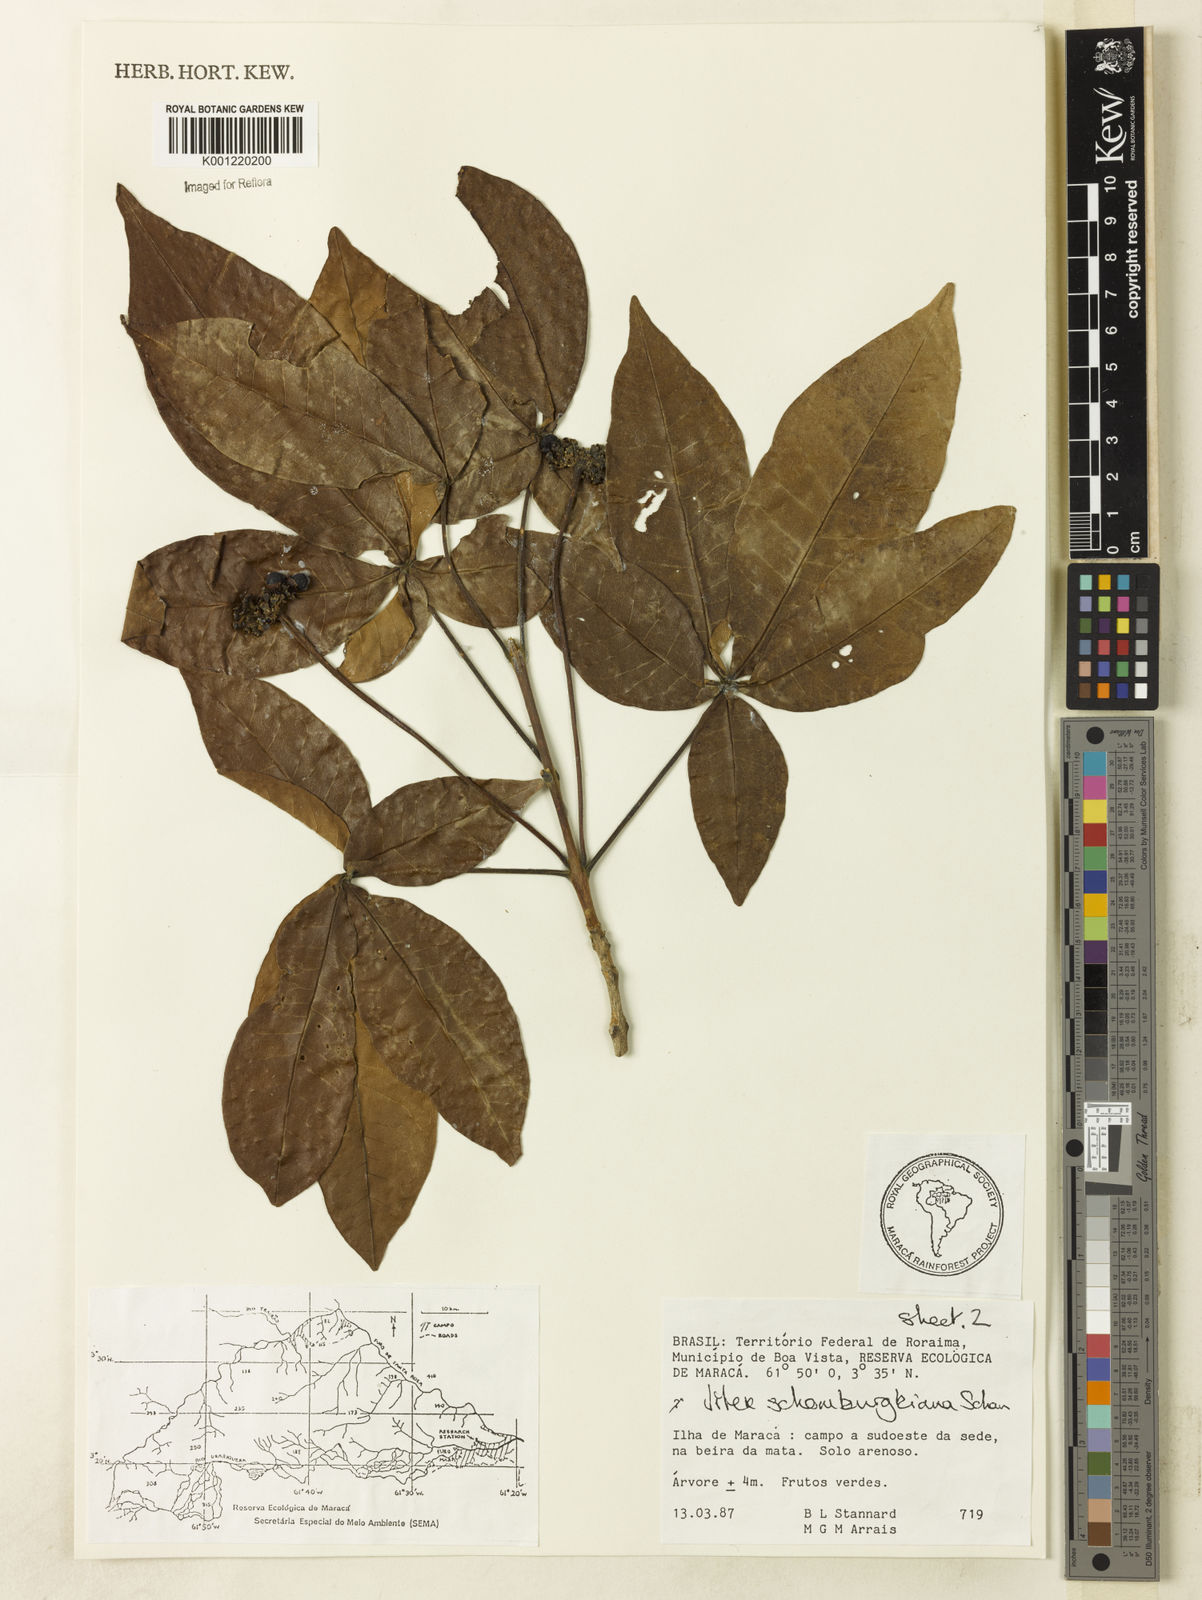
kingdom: Plantae
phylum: Tracheophyta
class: Magnoliopsida
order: Lamiales
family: Lamiaceae
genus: Vitex
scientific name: Vitex schomburgkiana
